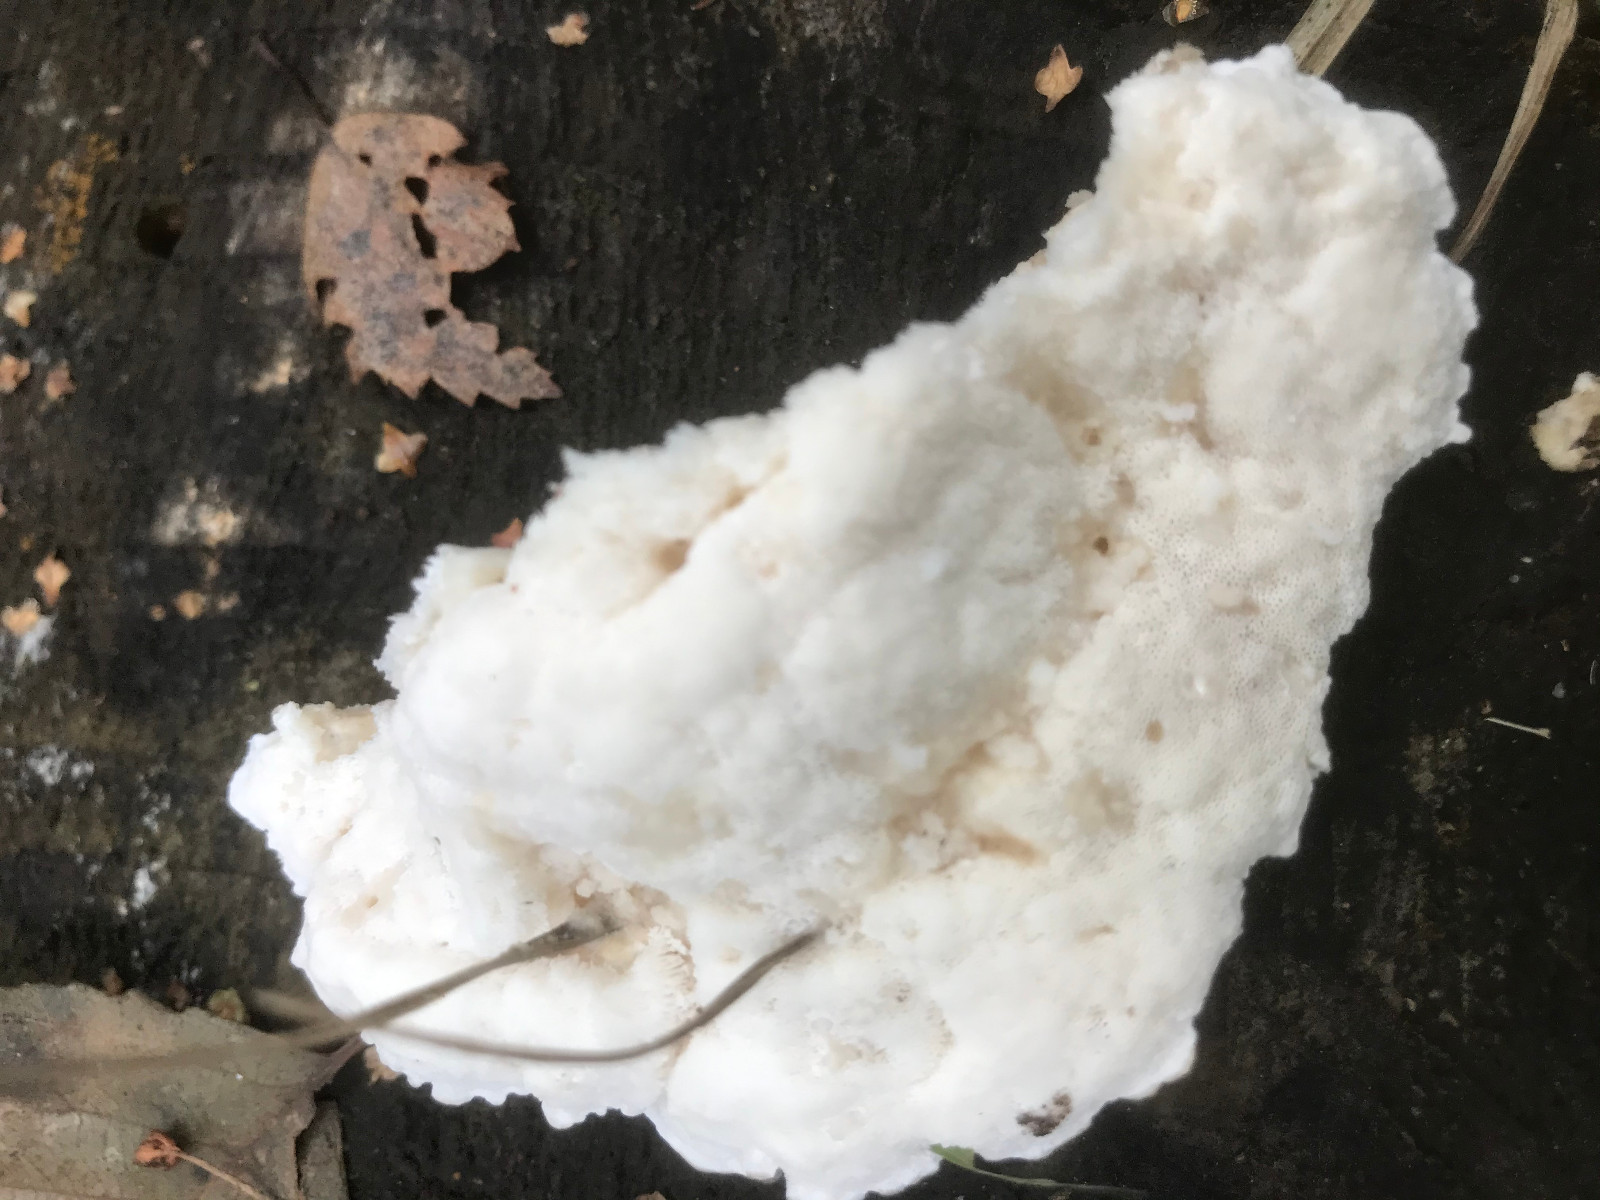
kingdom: Fungi
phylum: Basidiomycota
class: Agaricomycetes
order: Polyporales
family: Fomitopsidaceae
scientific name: Fomitopsidaceae
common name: hovporesvampfamilien
